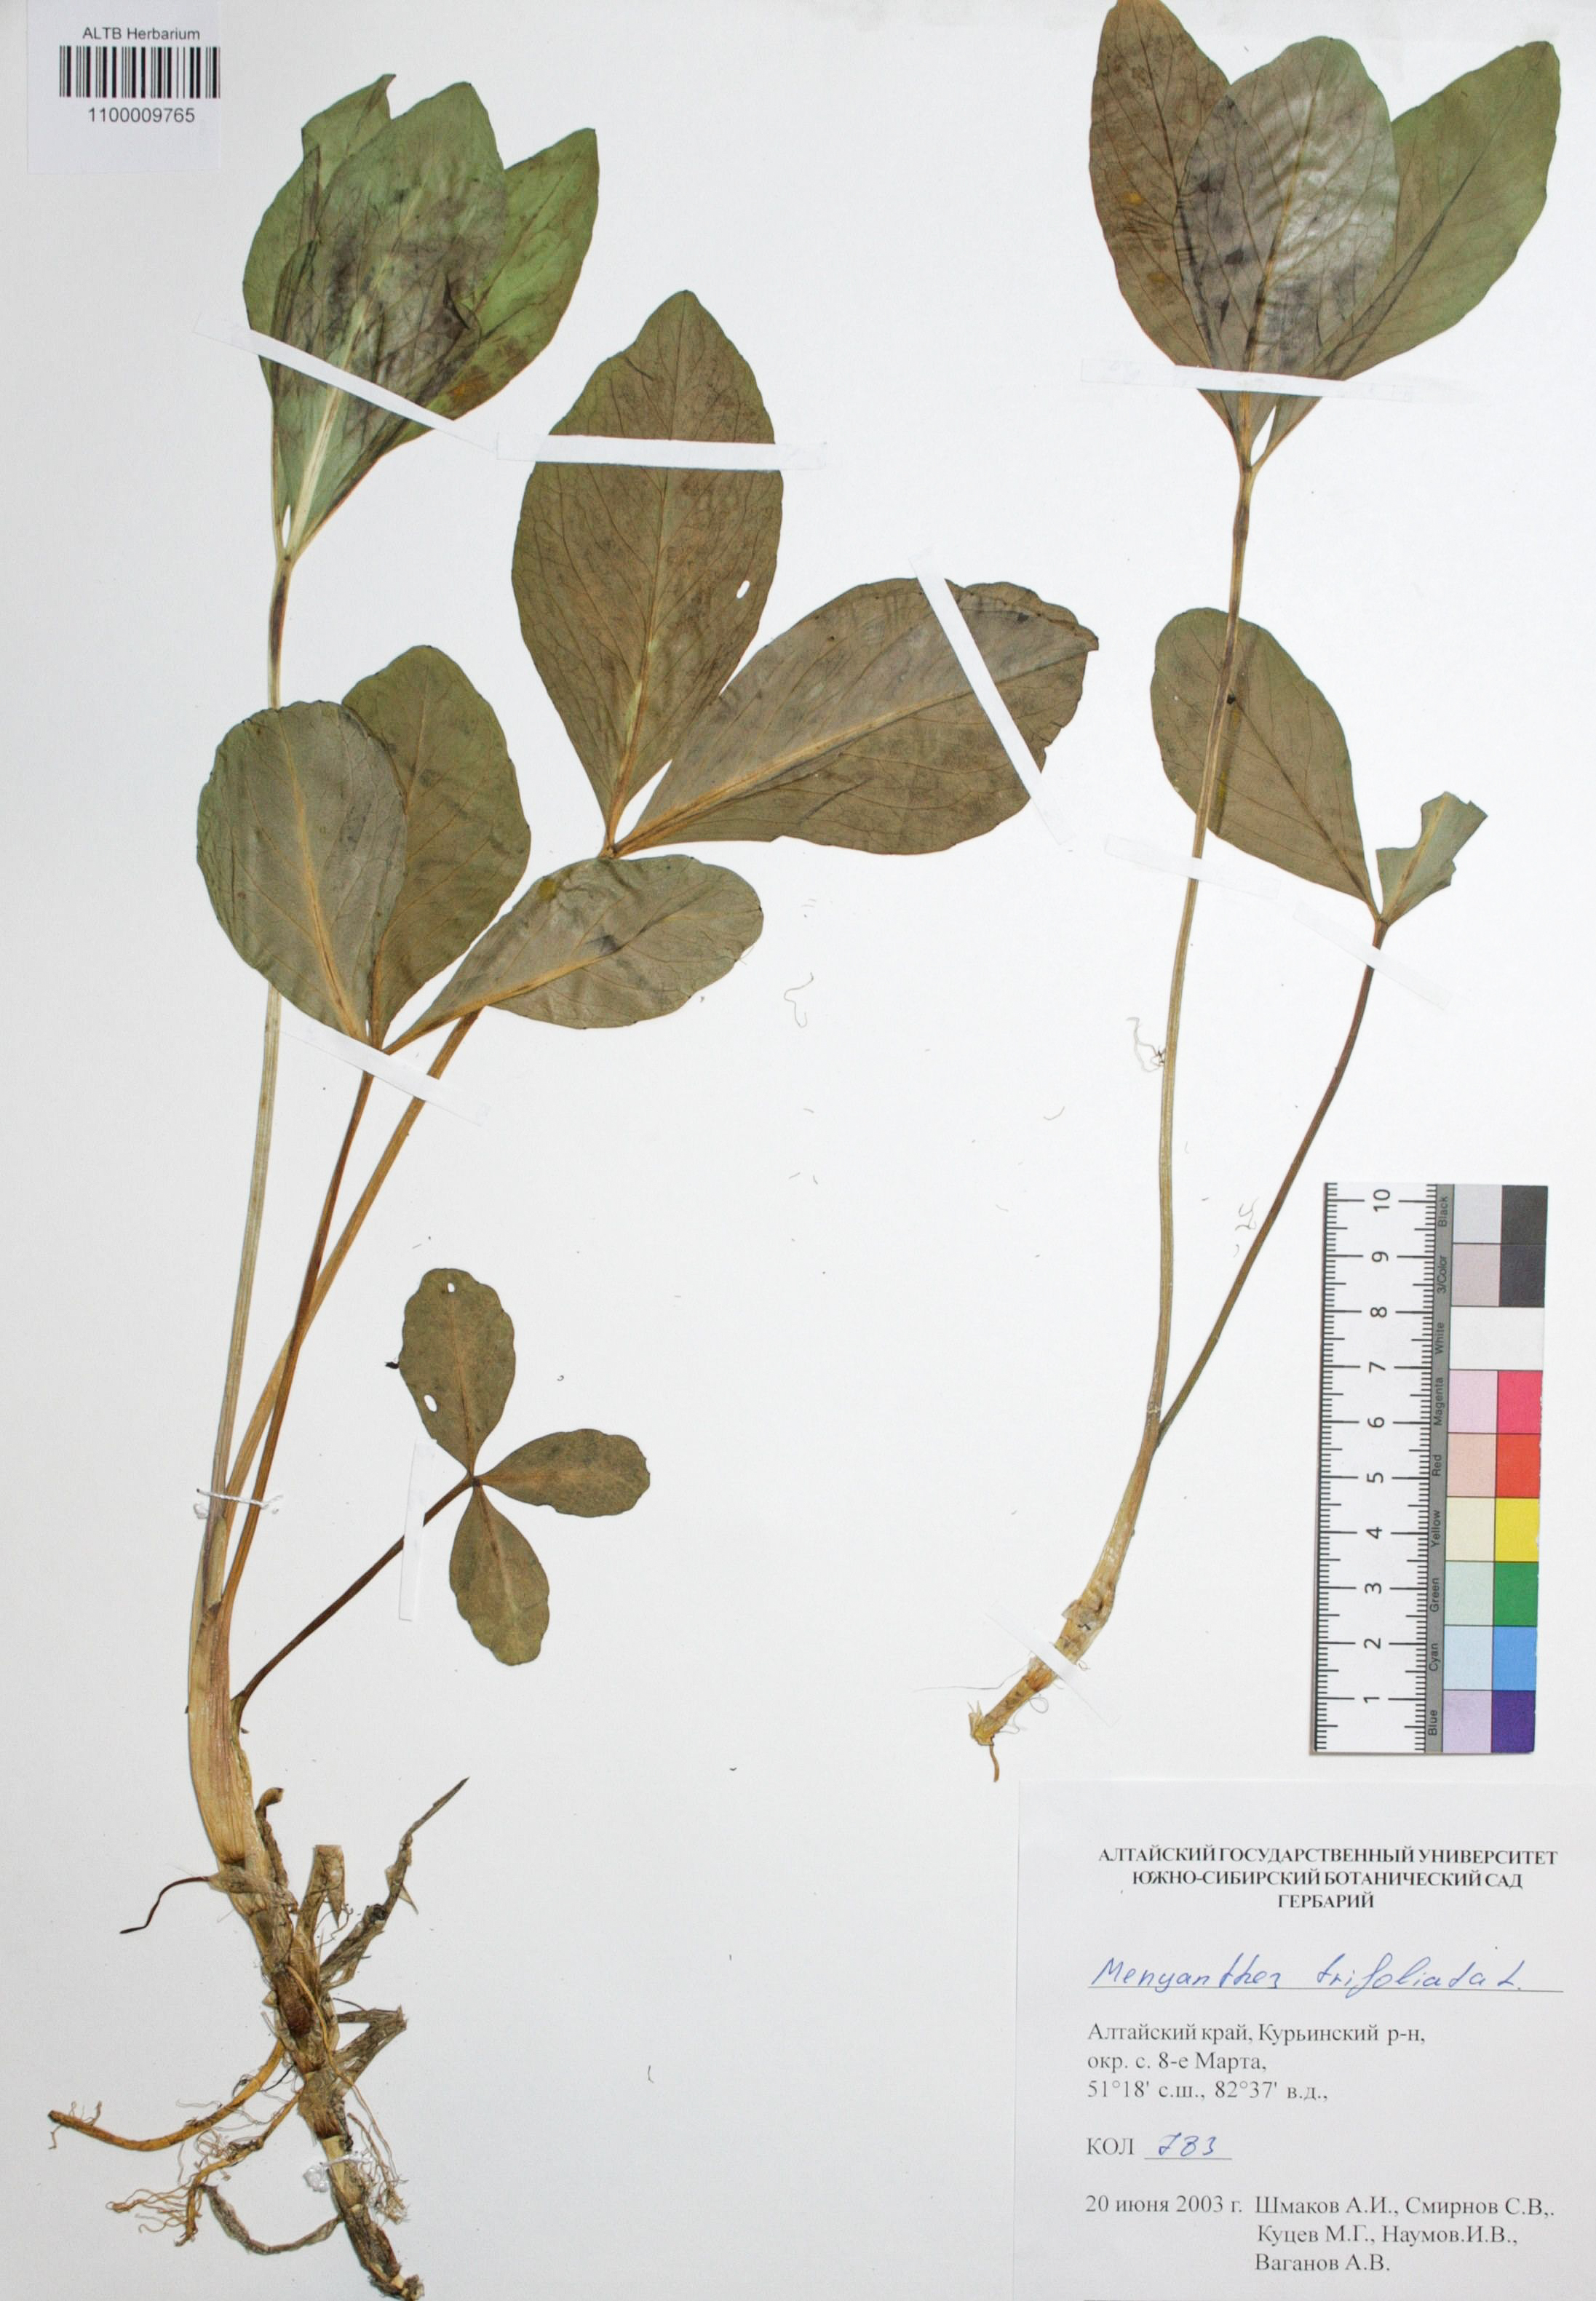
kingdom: Plantae
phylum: Tracheophyta
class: Magnoliopsida
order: Asterales
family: Menyanthaceae
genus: Menyanthes
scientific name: Menyanthes trifoliata
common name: Bogbean
